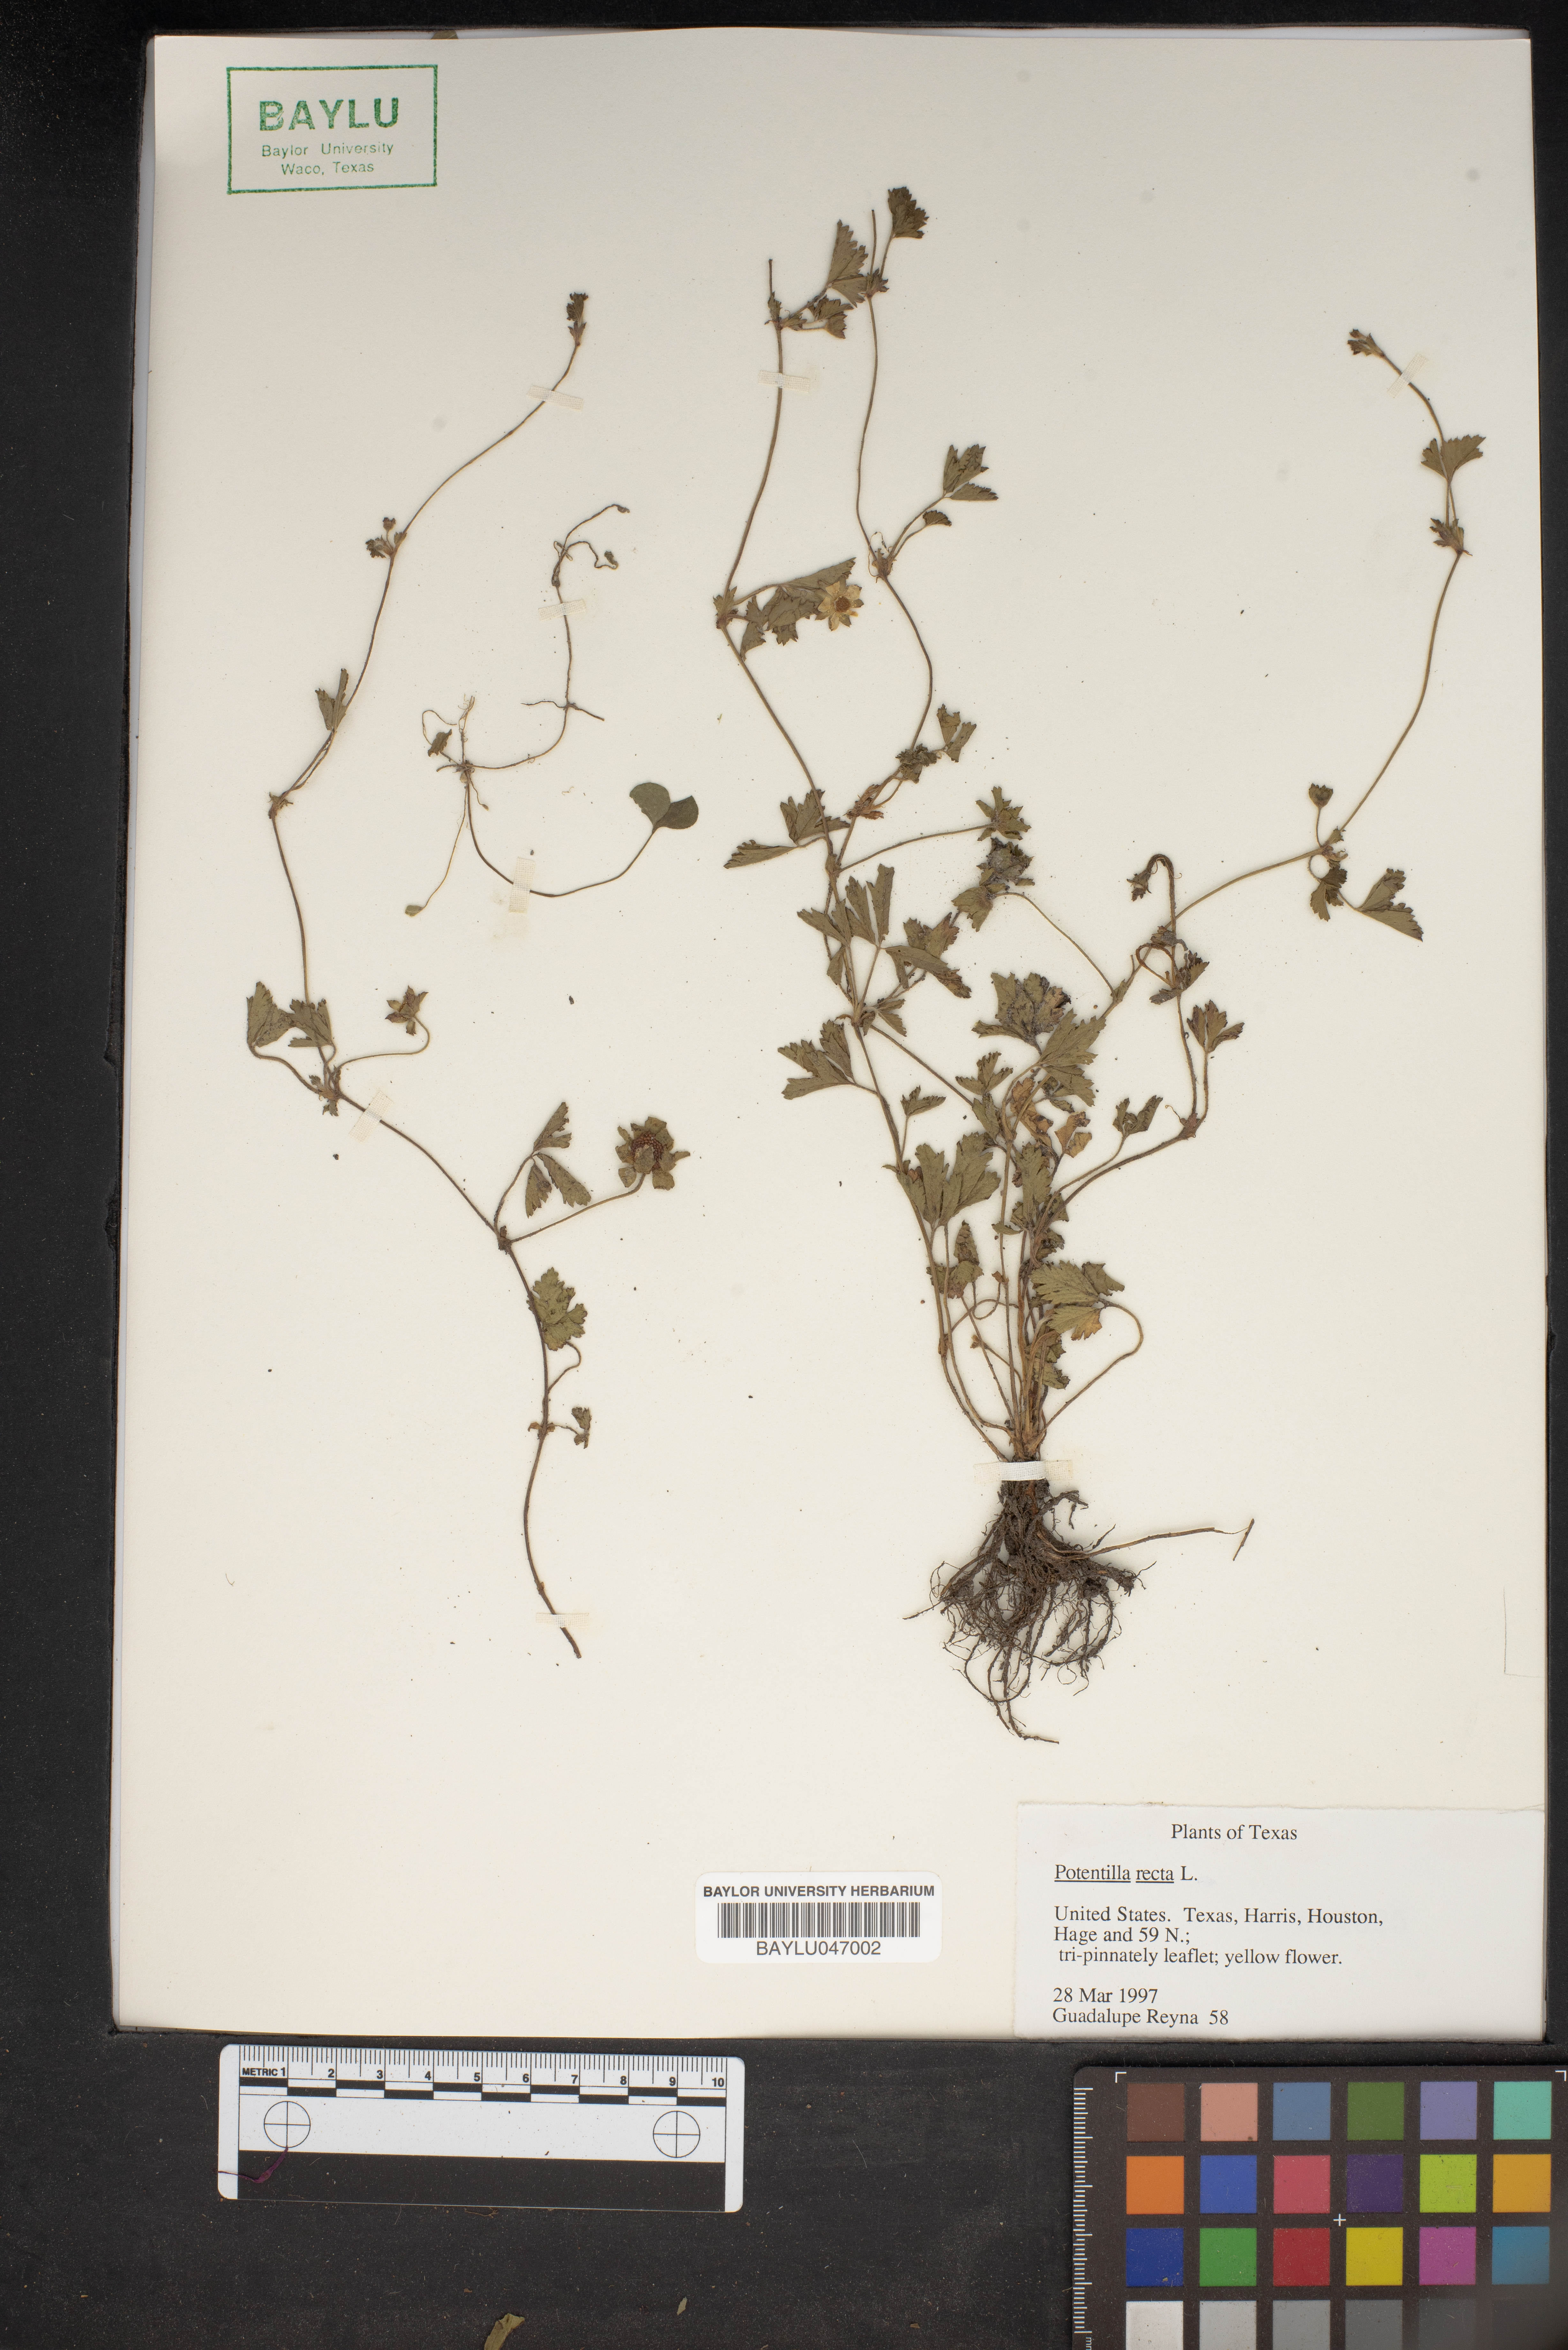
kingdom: Plantae
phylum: Tracheophyta
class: Magnoliopsida
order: Rosales
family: Rosaceae
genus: Potentilla
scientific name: Potentilla recta
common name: Sulphur cinquefoil
